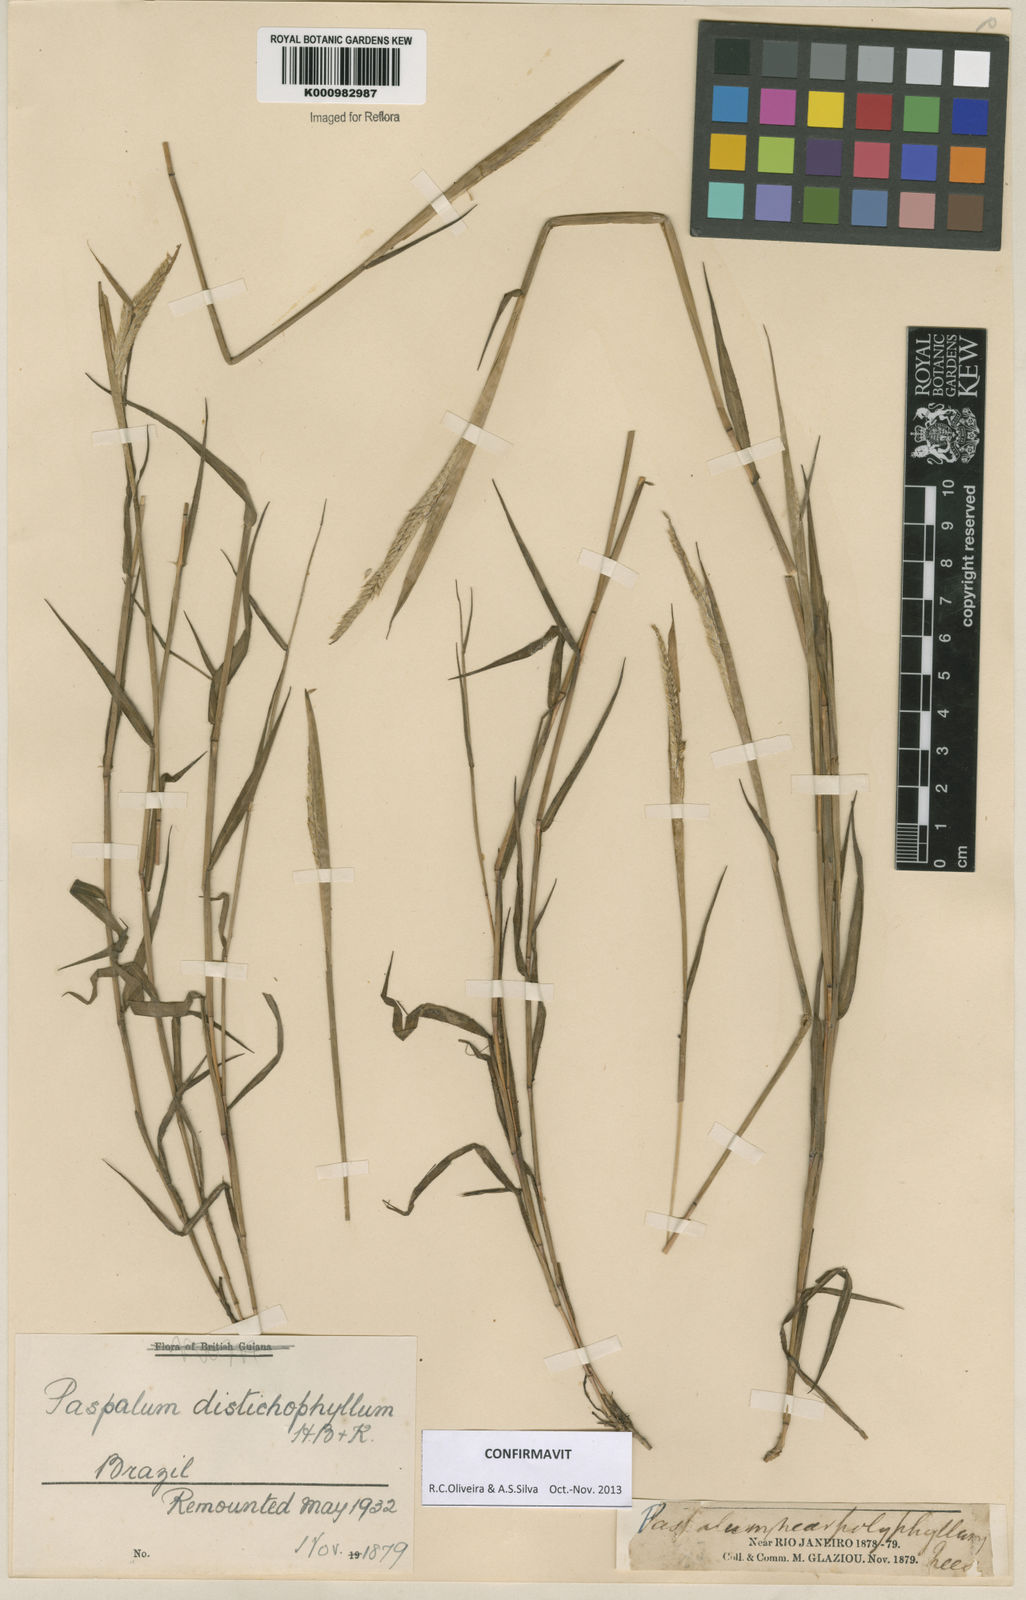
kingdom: Plantae
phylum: Tracheophyta
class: Liliopsida
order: Poales
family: Poaceae
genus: Paspalum
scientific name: Paspalum
